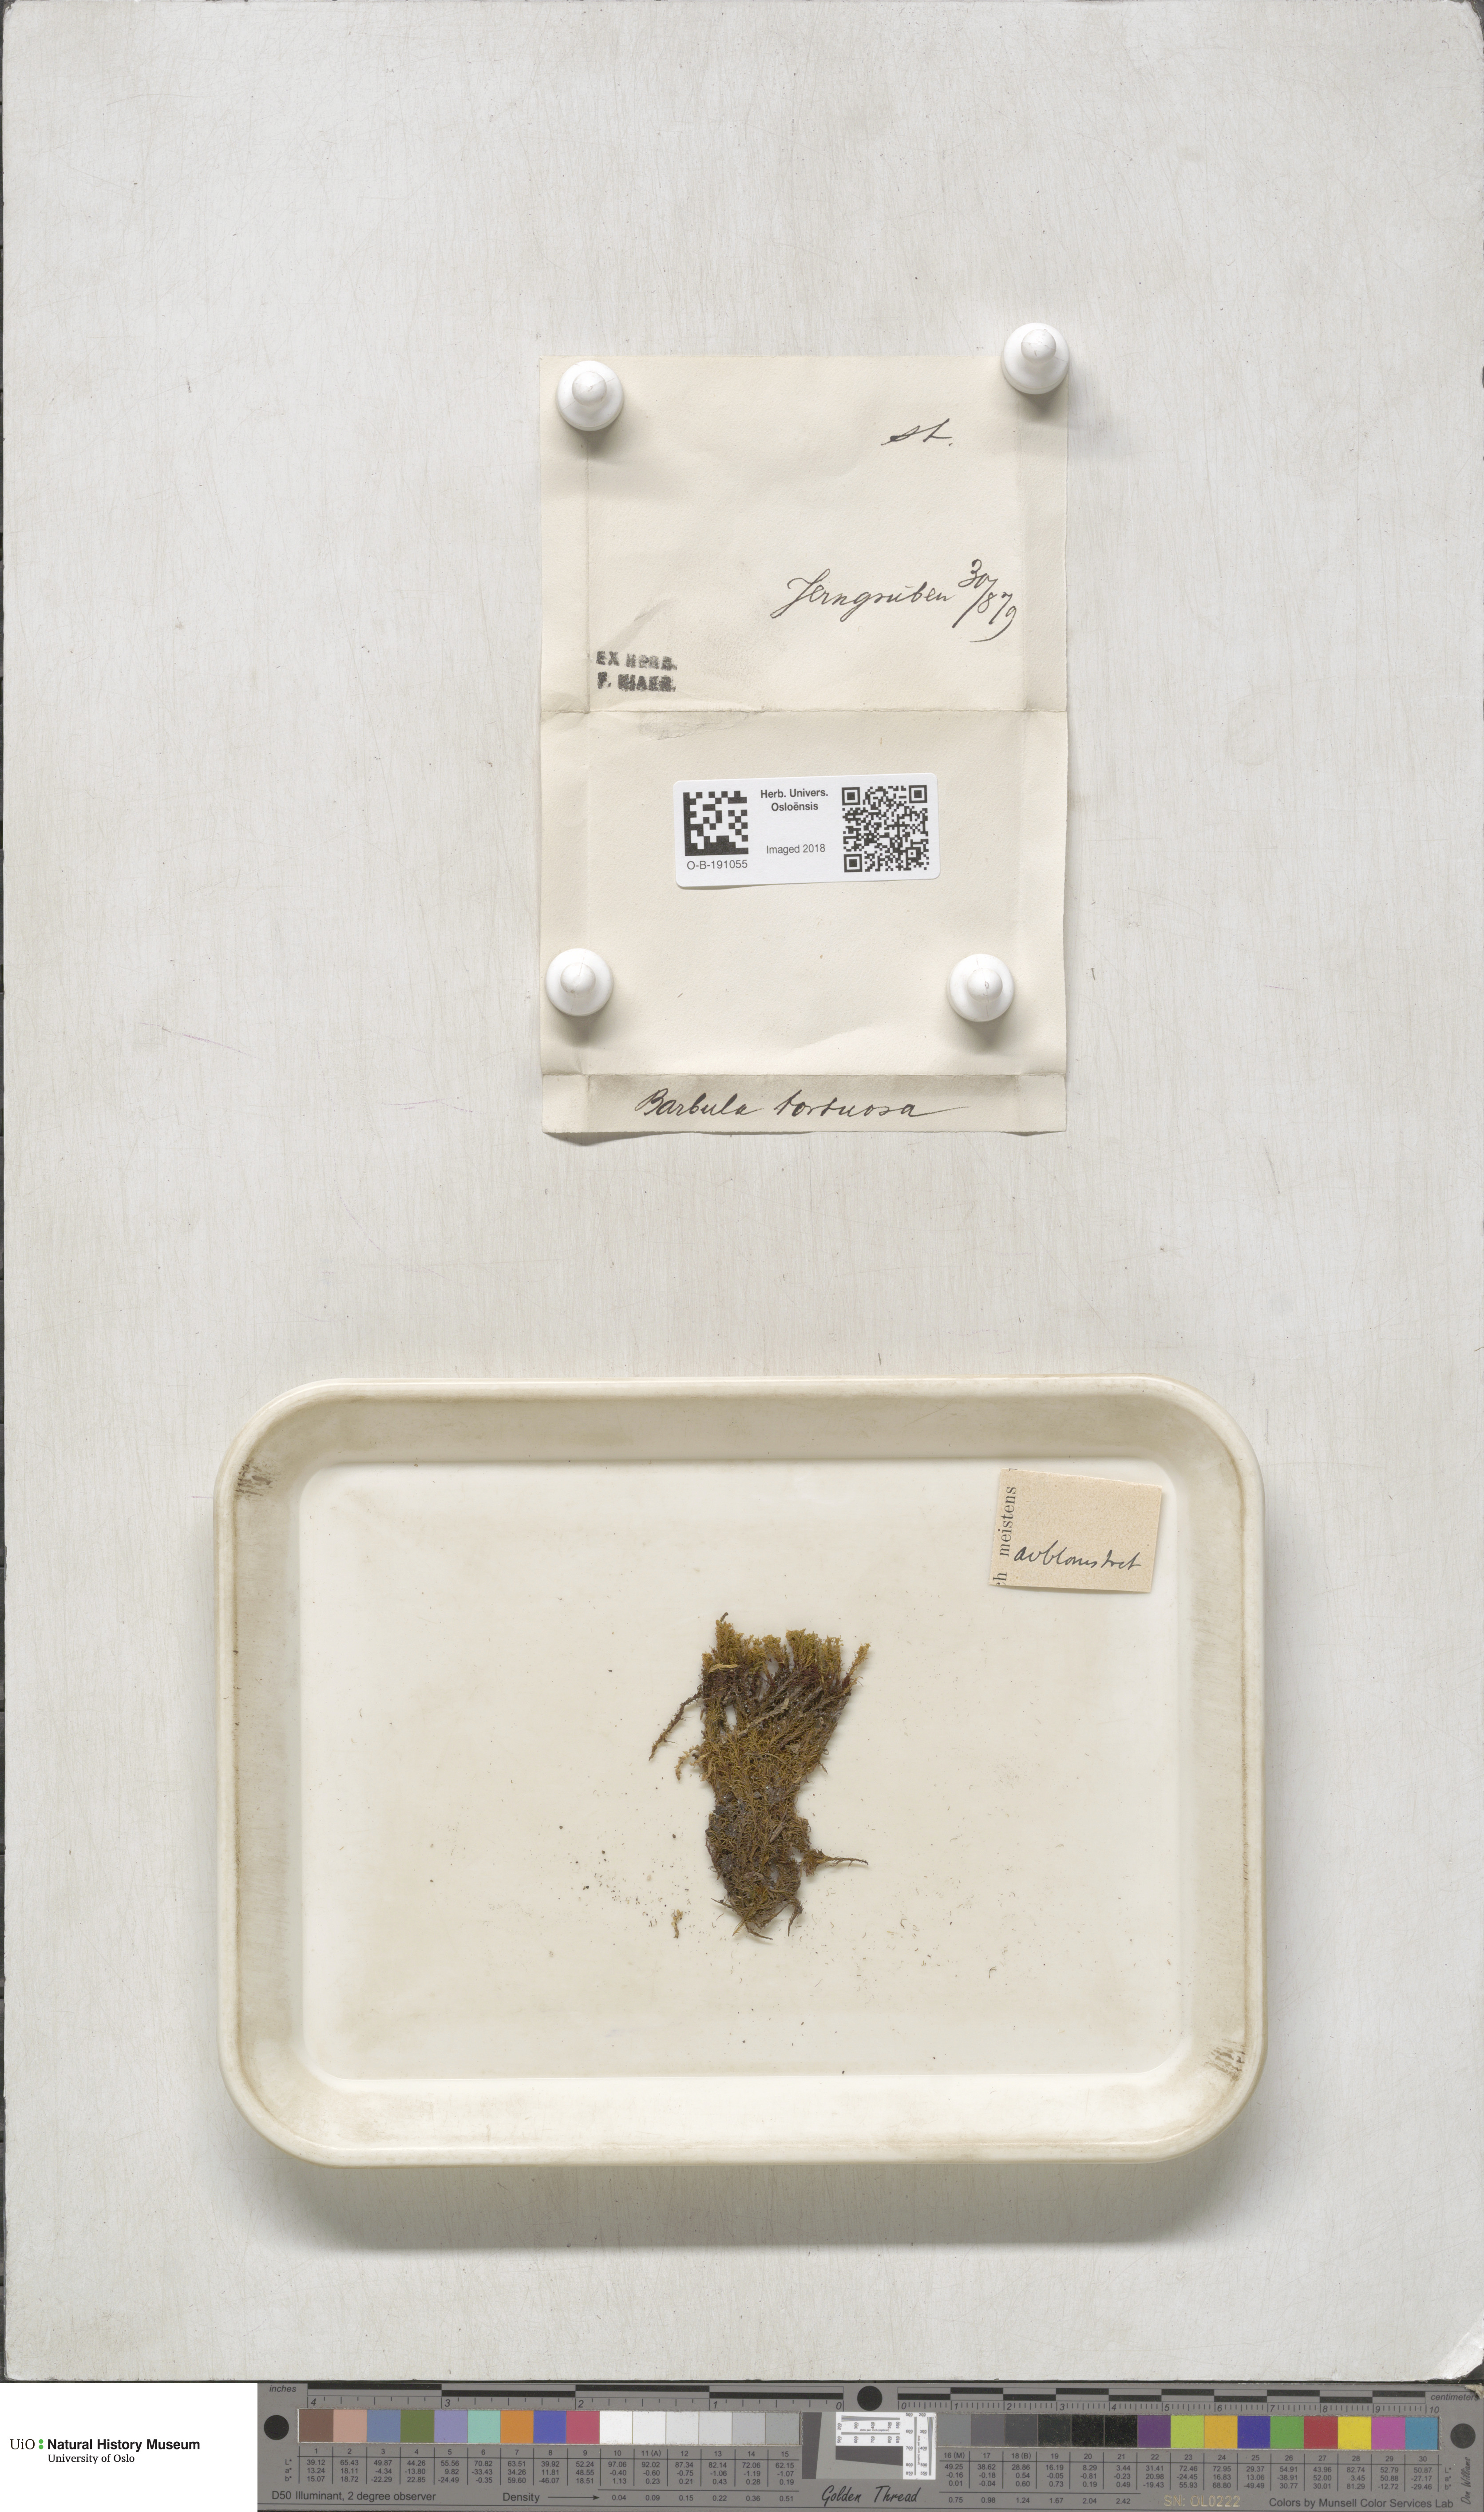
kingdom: Plantae
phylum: Bryophyta
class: Bryopsida
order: Pottiales
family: Pottiaceae
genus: Tortella
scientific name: Tortella tortuosa
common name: Frizzled crisp moss
